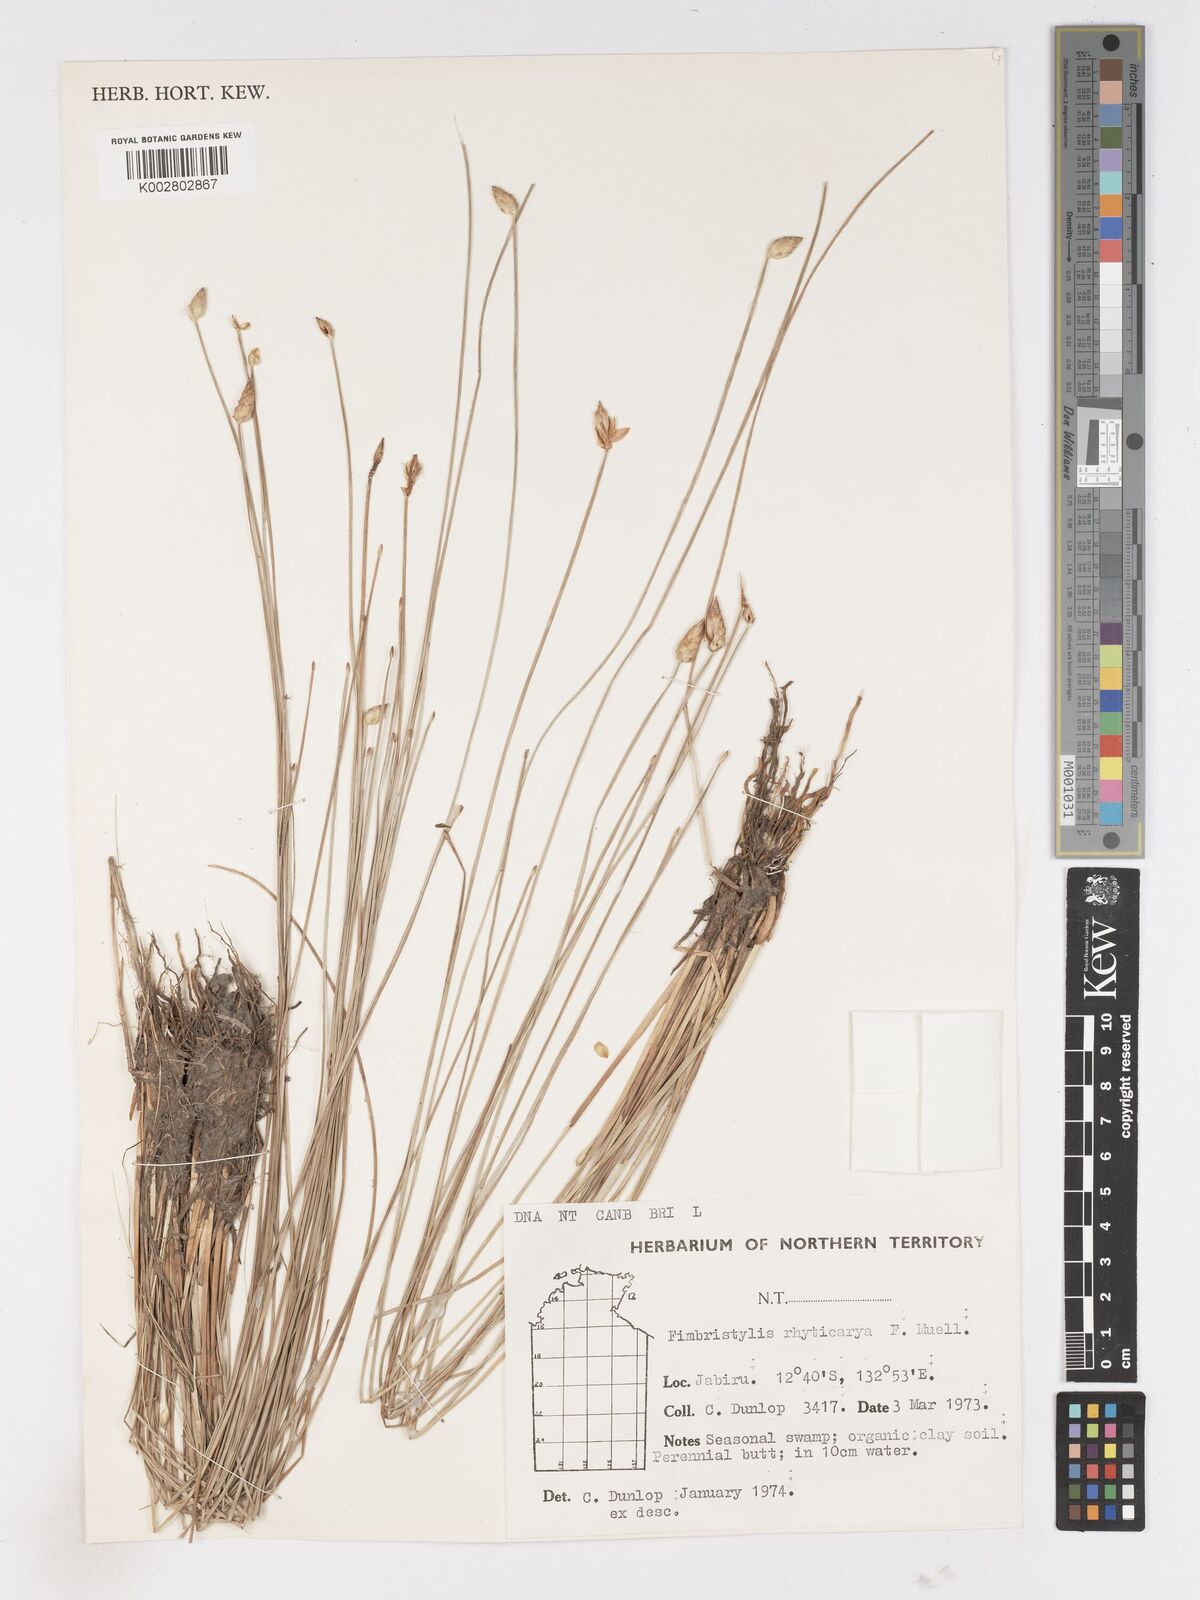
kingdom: Plantae
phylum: Tracheophyta
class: Liliopsida
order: Poales
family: Cyperaceae
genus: Fimbristylis
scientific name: Fimbristylis rhyticarya
